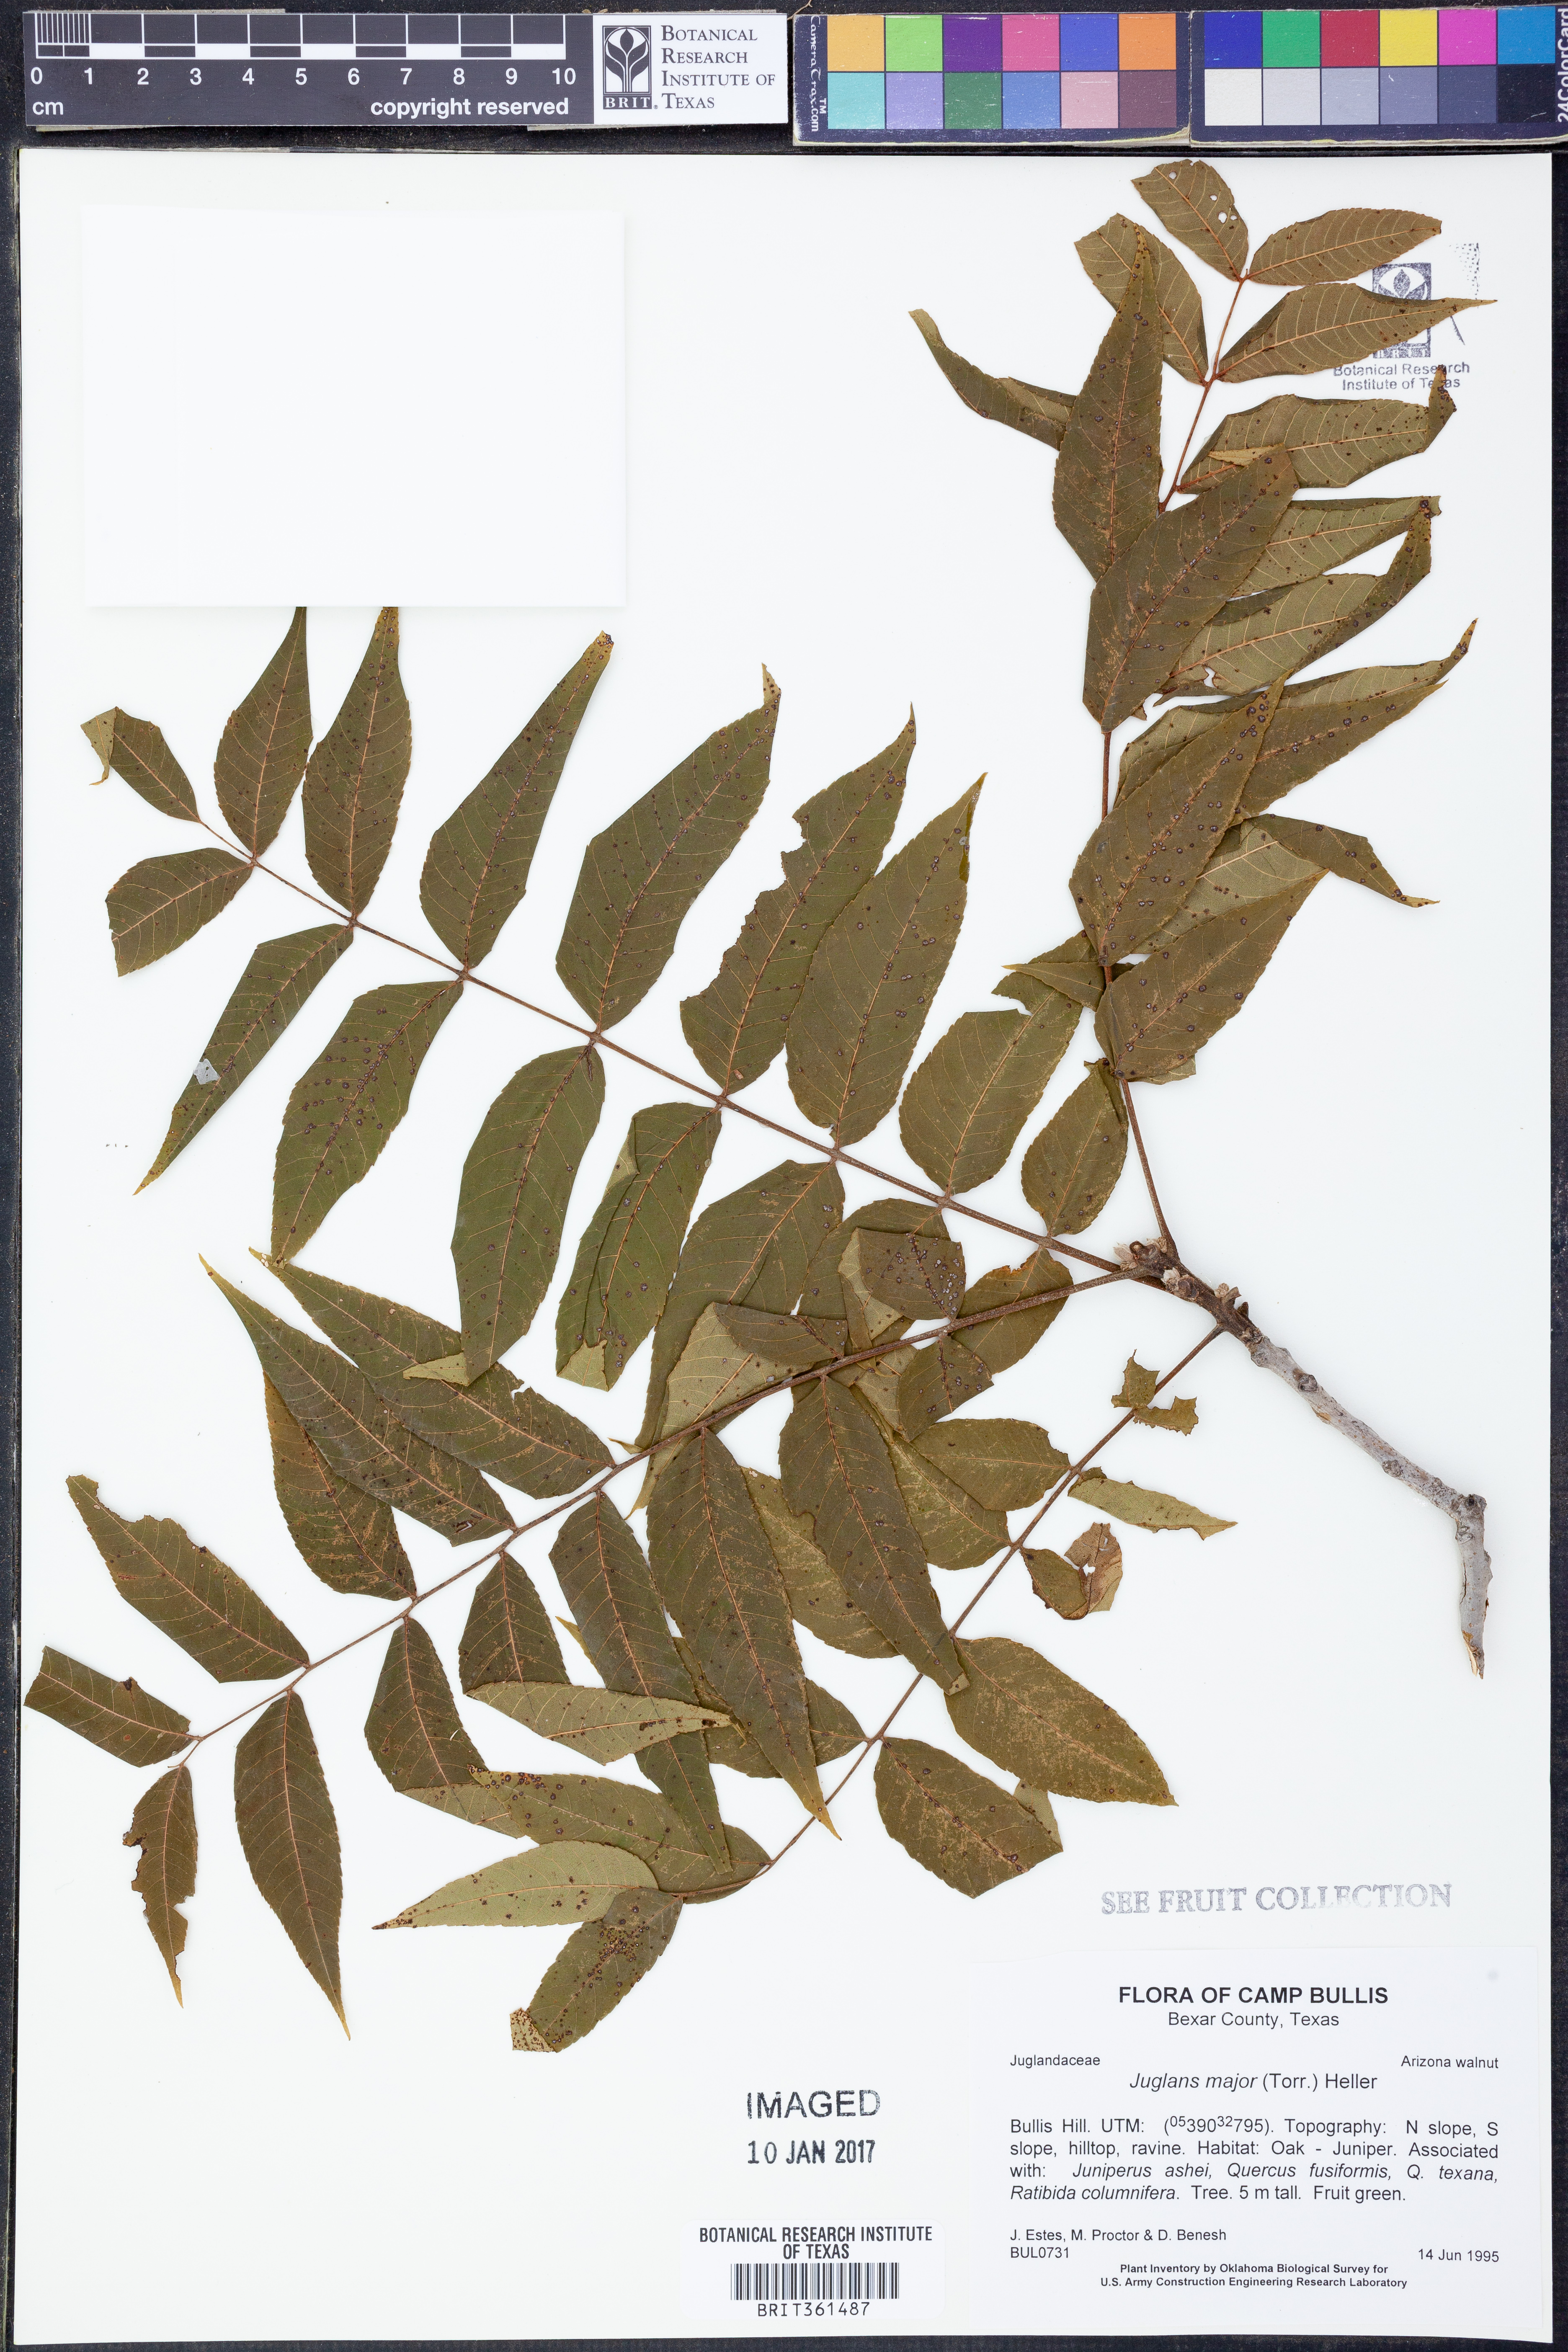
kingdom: Plantae
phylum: Tracheophyta
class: Magnoliopsida
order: Fagales
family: Juglandaceae
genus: Juglans
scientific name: Juglans major
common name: Arizona walnut
